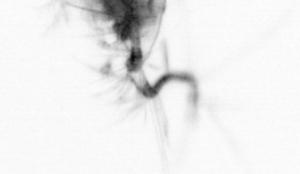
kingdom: Animalia
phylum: Arthropoda
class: Copepoda
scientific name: Copepoda
